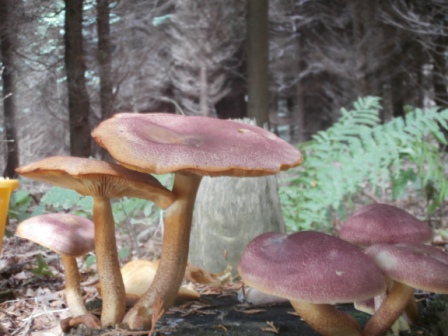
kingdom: Fungi
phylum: Basidiomycota
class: Agaricomycetes
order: Agaricales
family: Tricholomataceae
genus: Tricholomopsis
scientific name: Tricholomopsis rutilans
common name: purpur-væbnerhat
